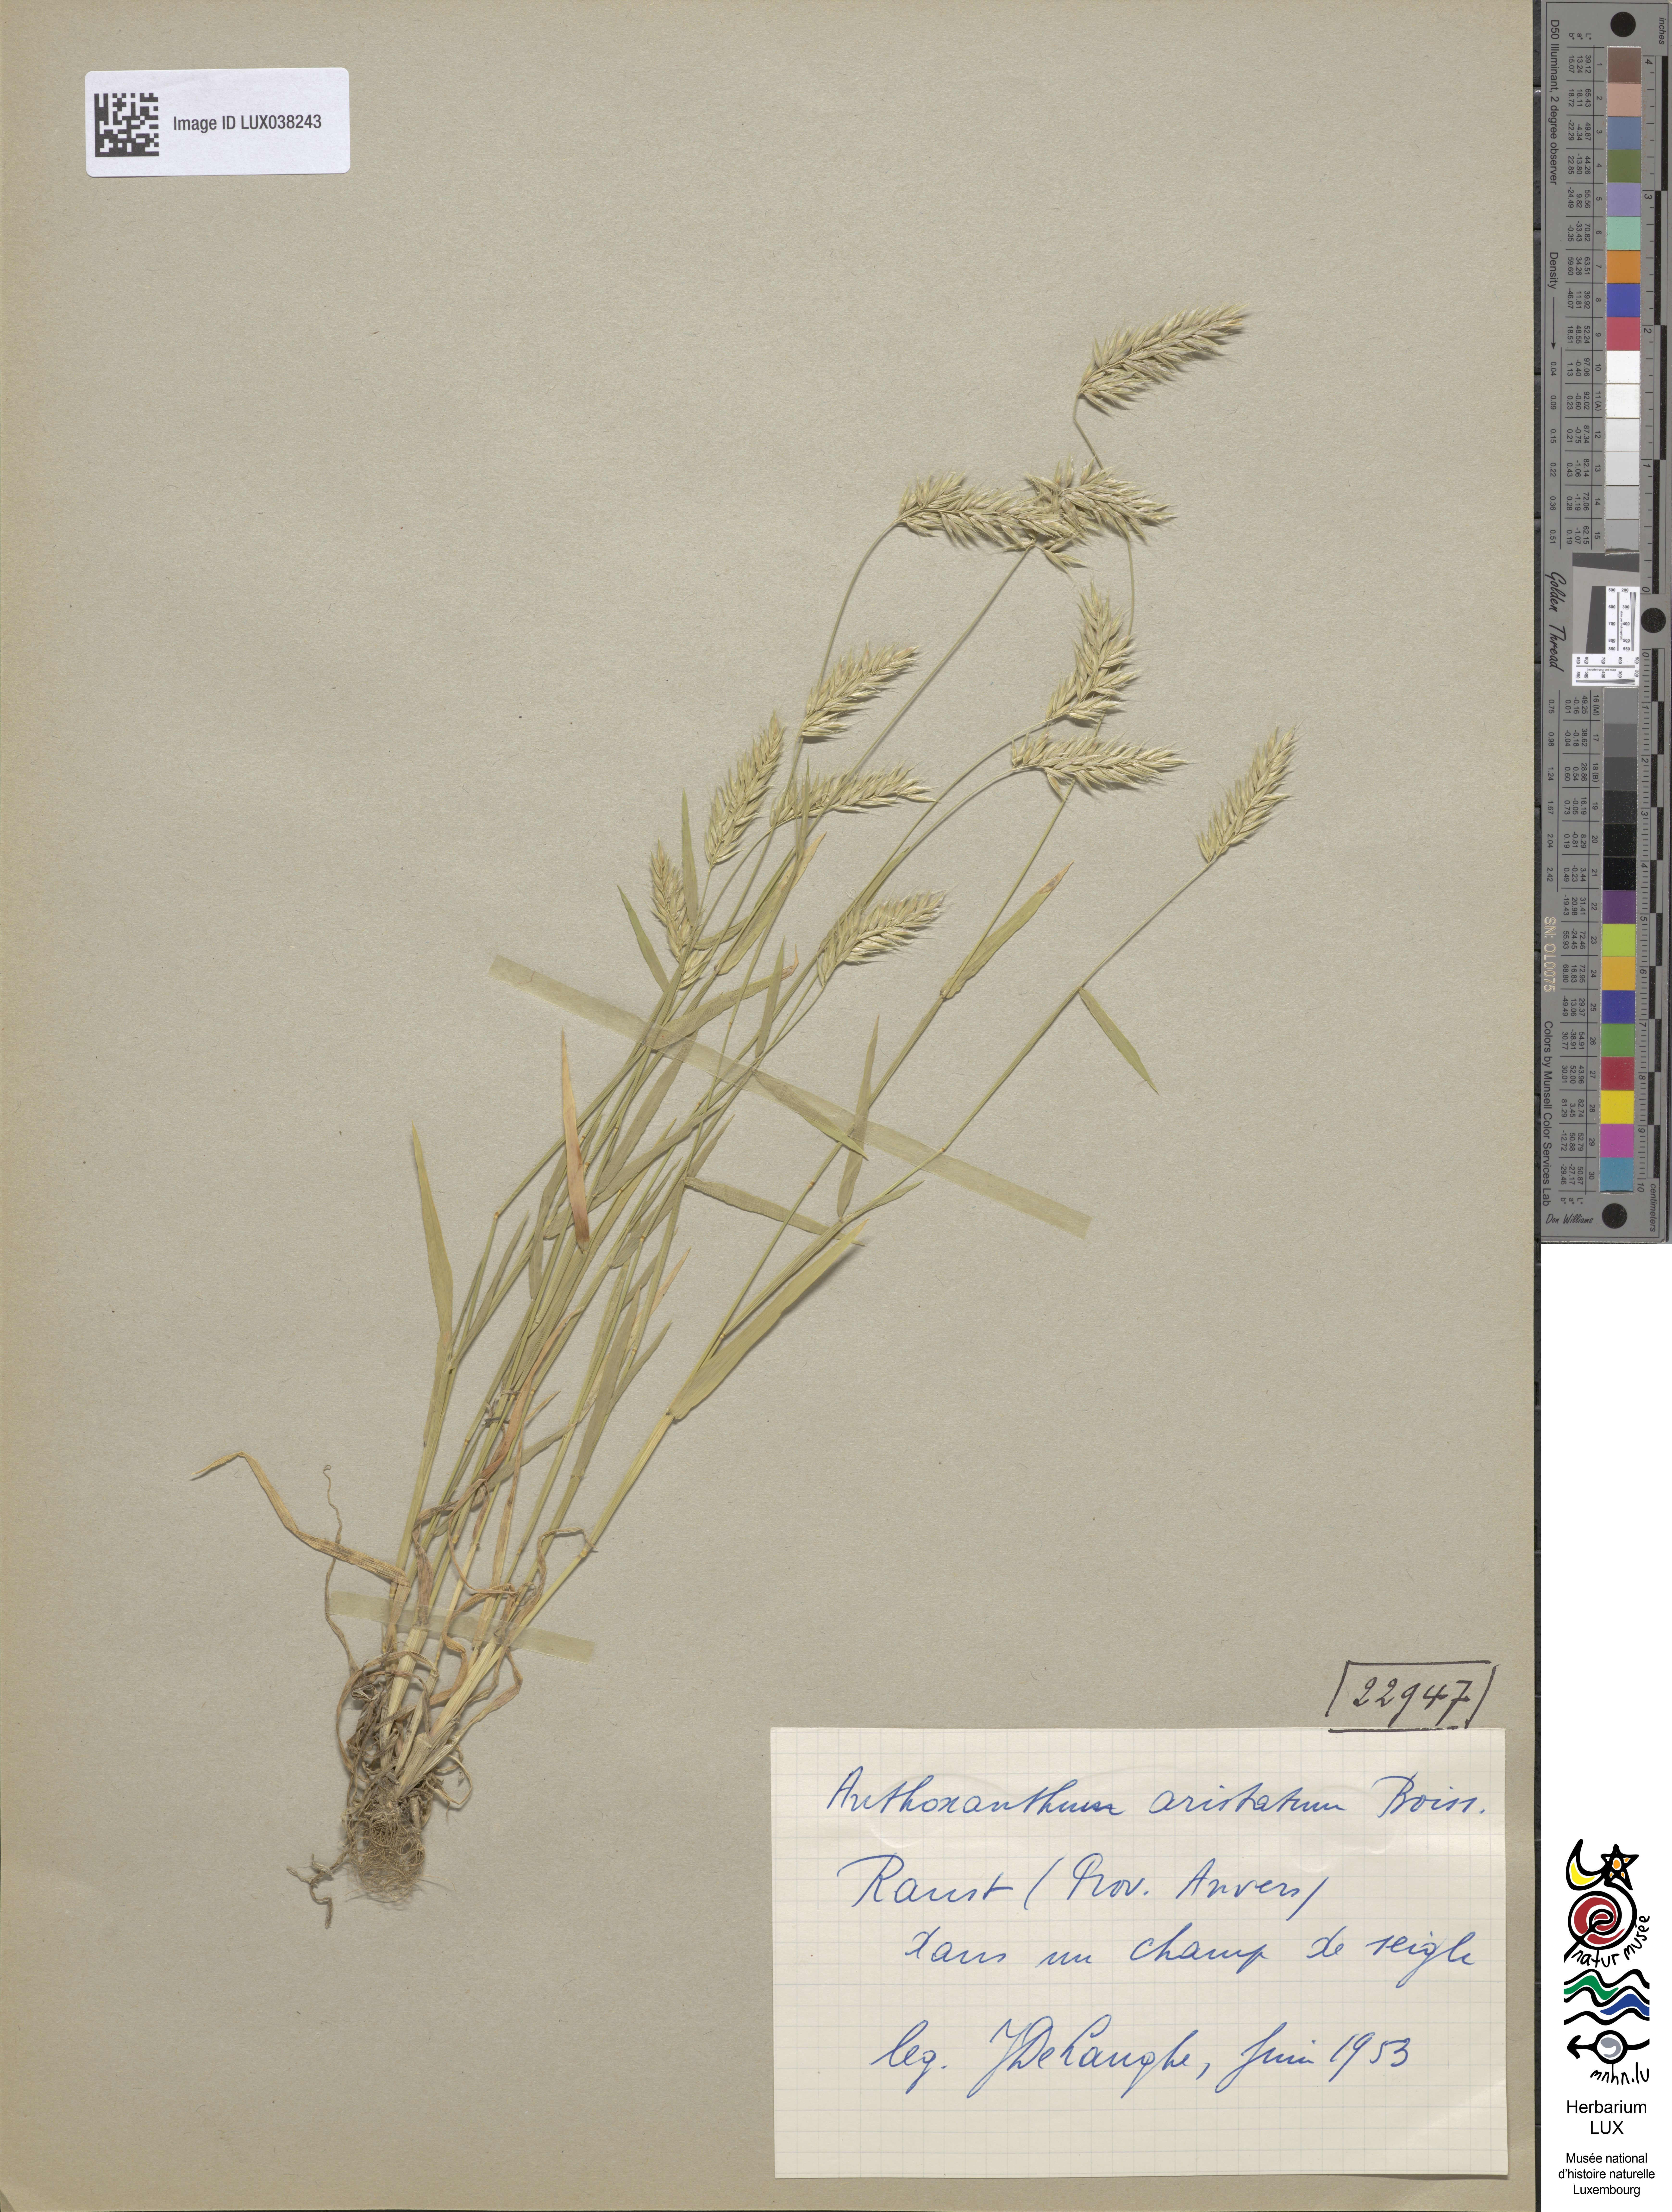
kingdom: Plantae
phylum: Tracheophyta
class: Liliopsida
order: Poales
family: Poaceae
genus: Anthoxanthum
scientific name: Anthoxanthum aristatum
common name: Annual vernal-grass
